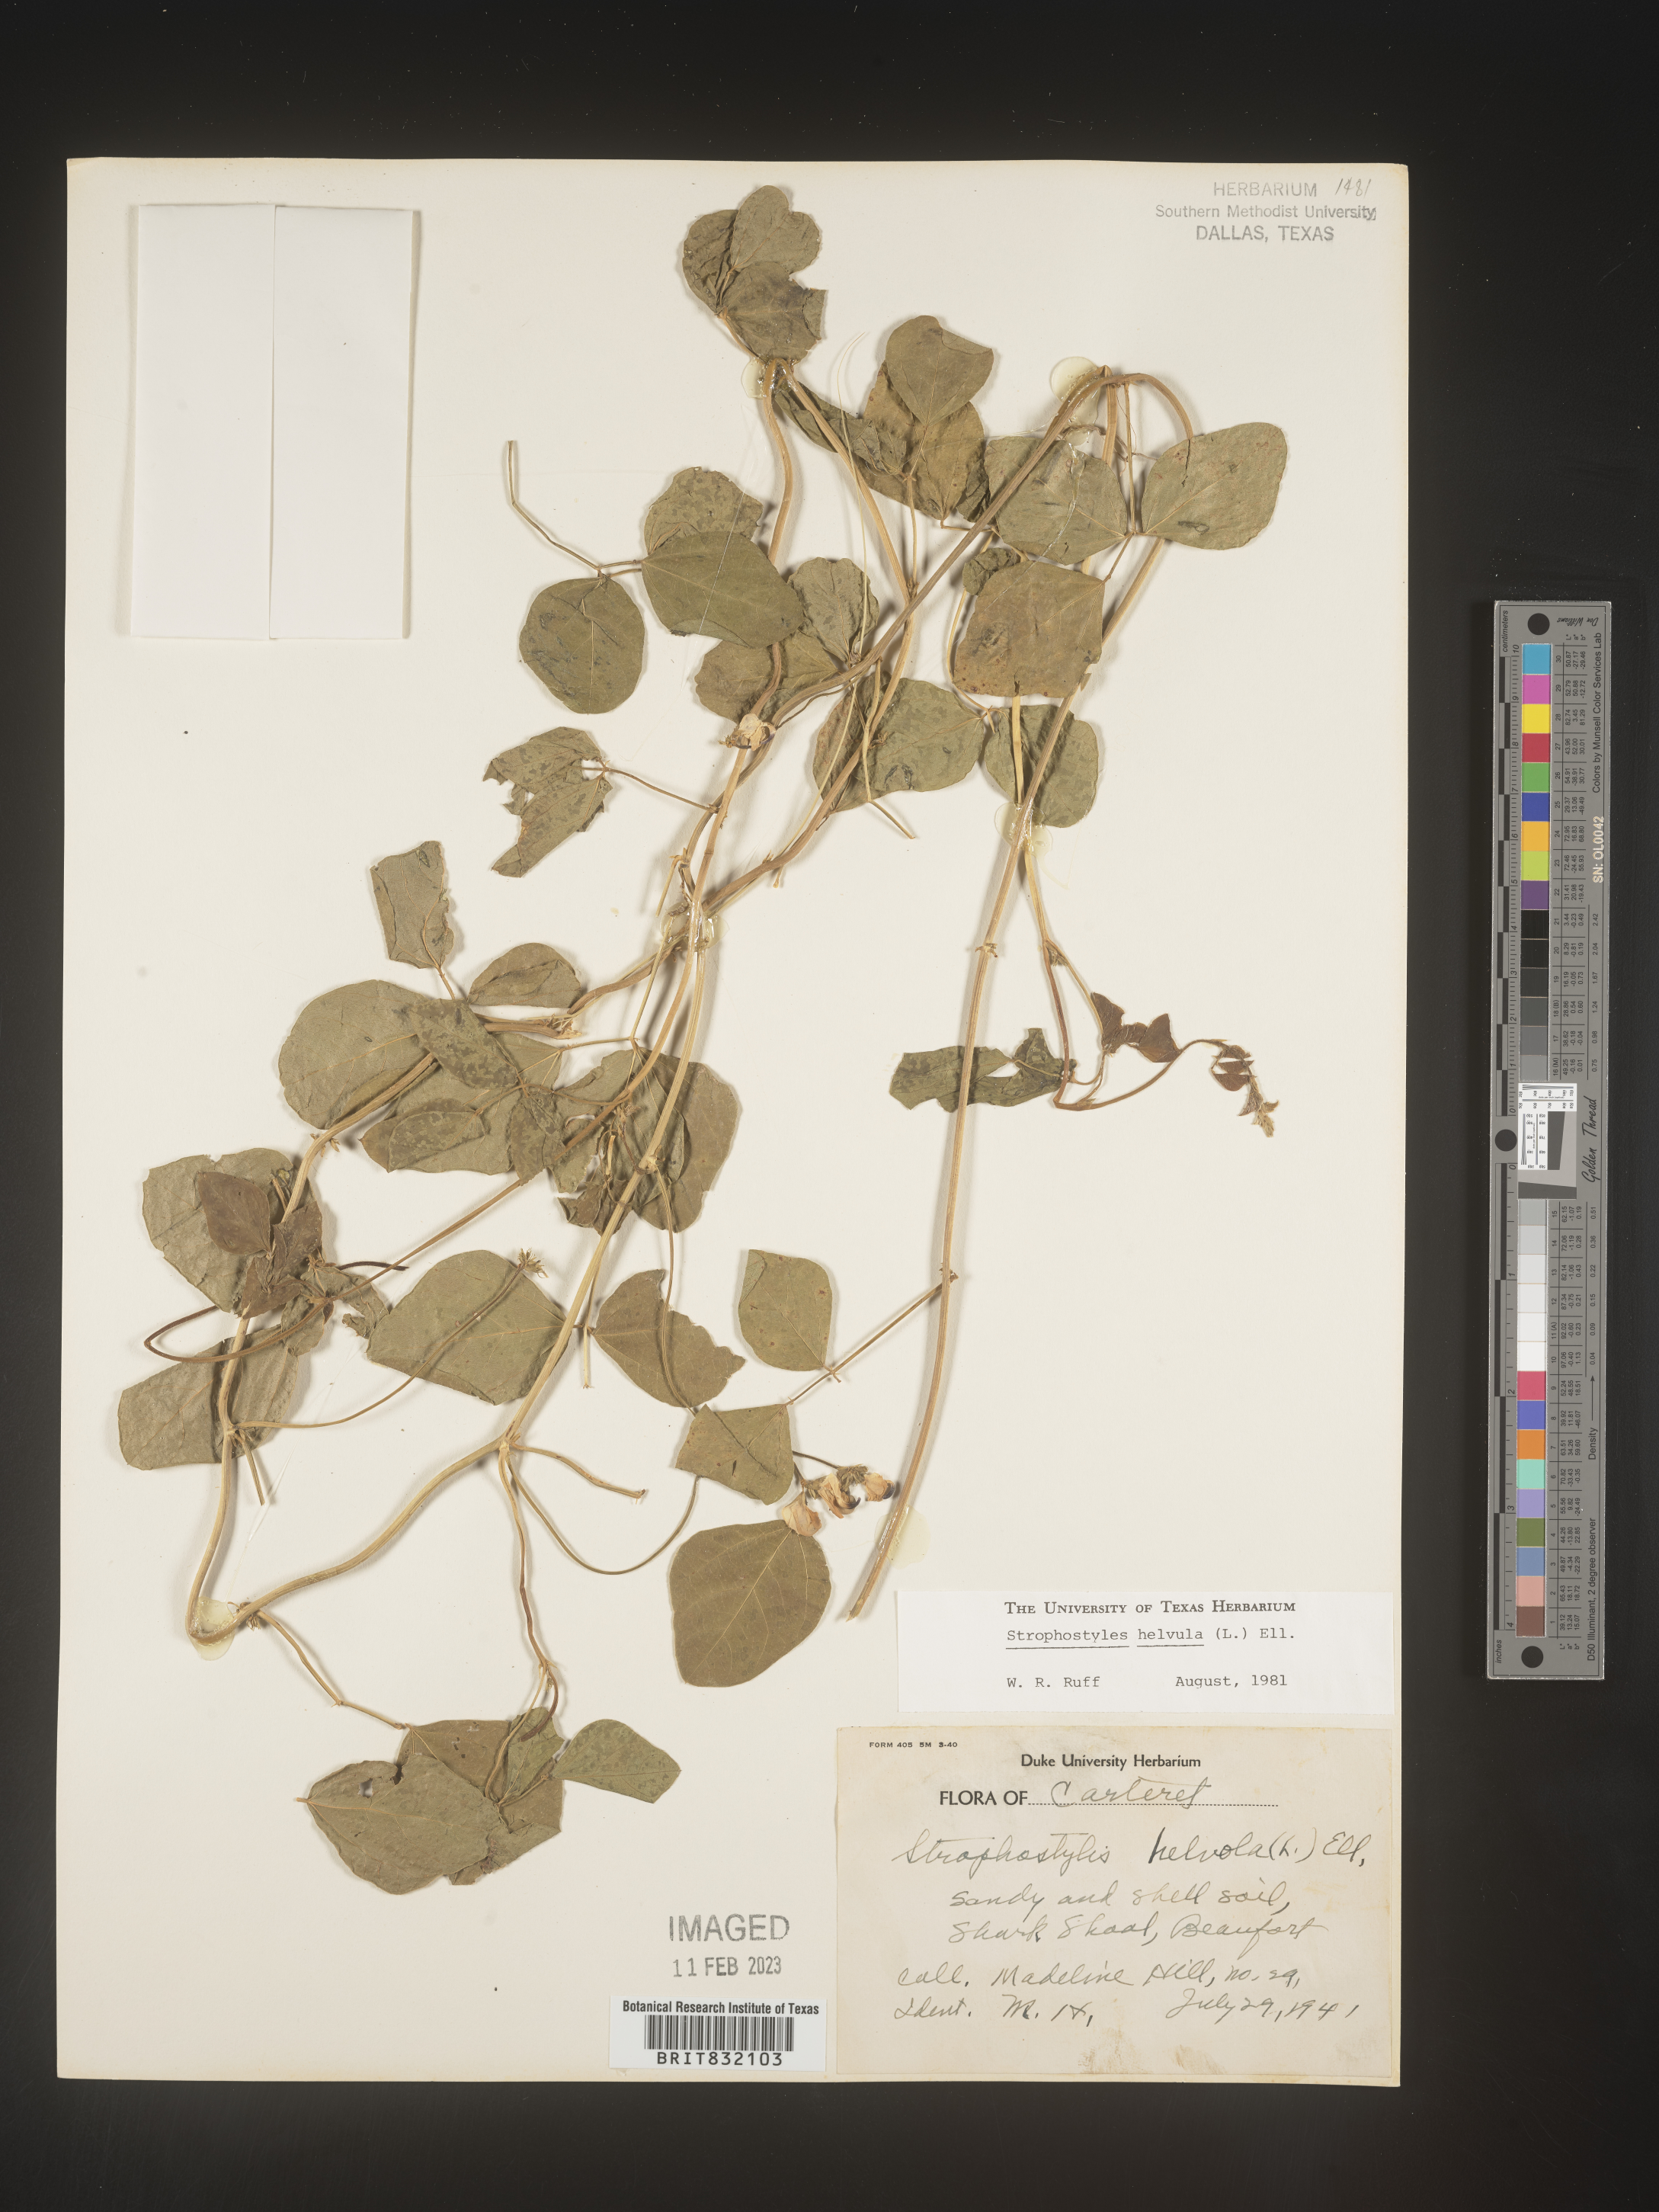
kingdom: Plantae
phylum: Tracheophyta
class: Magnoliopsida
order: Fabales
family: Fabaceae
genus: Strophostyles
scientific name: Strophostyles helvola
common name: Trailing wild bean
